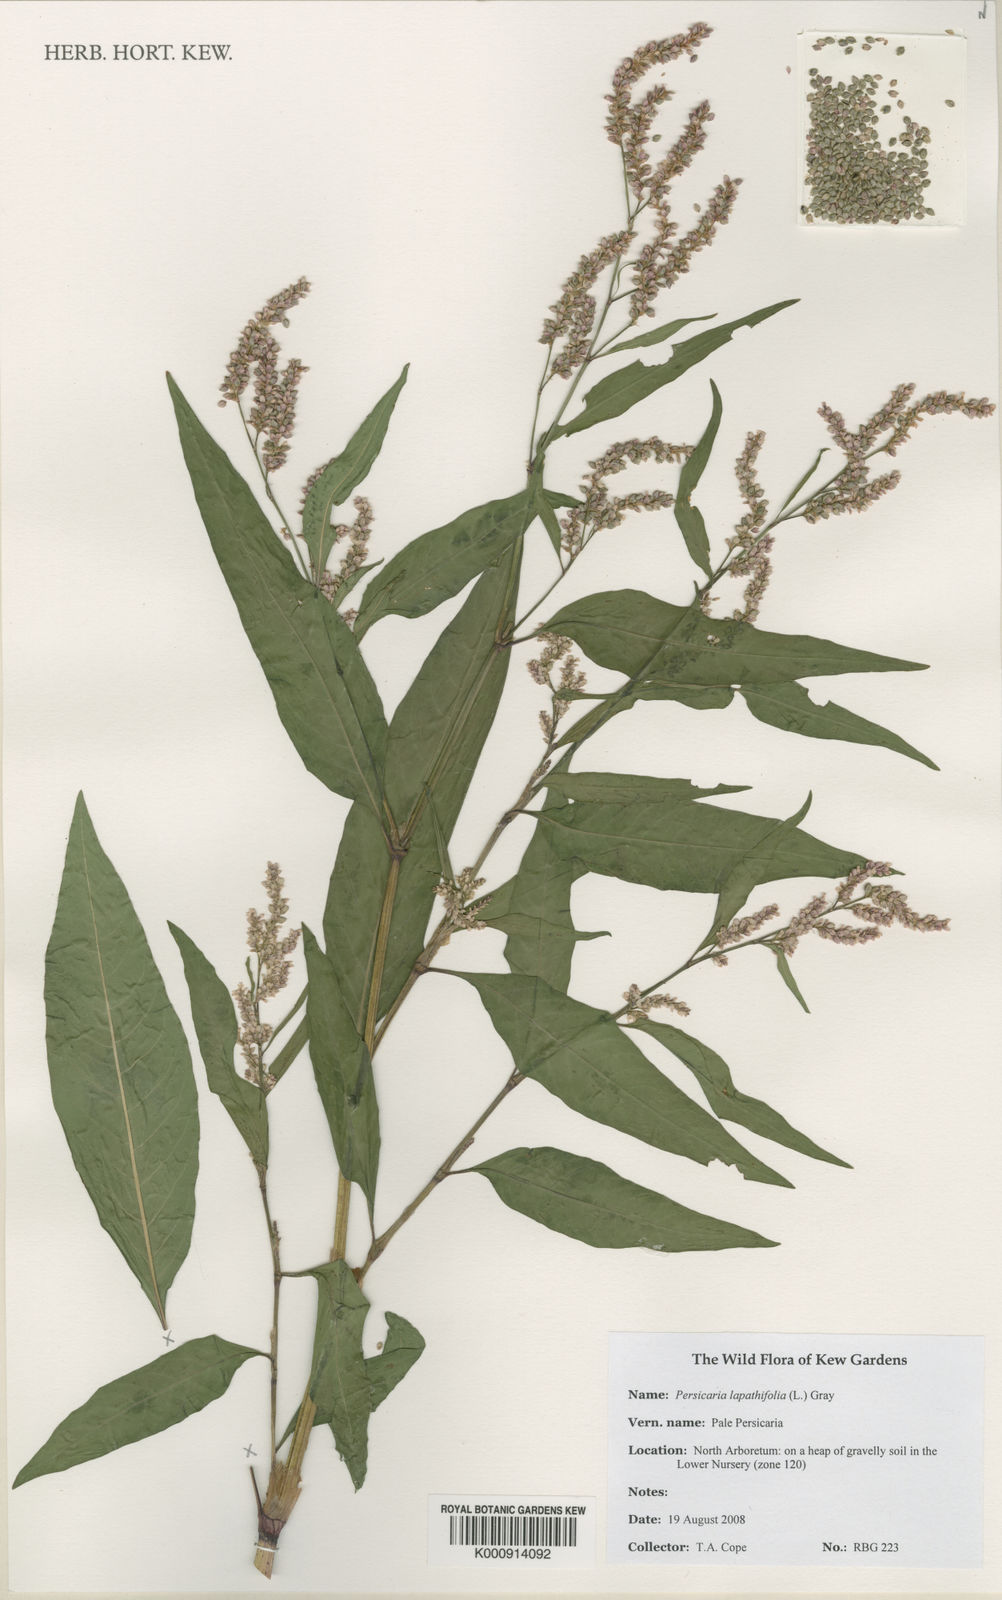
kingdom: Plantae
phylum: Tracheophyta
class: Magnoliopsida
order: Caryophyllales
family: Polygonaceae
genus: Persicaria
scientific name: Persicaria
